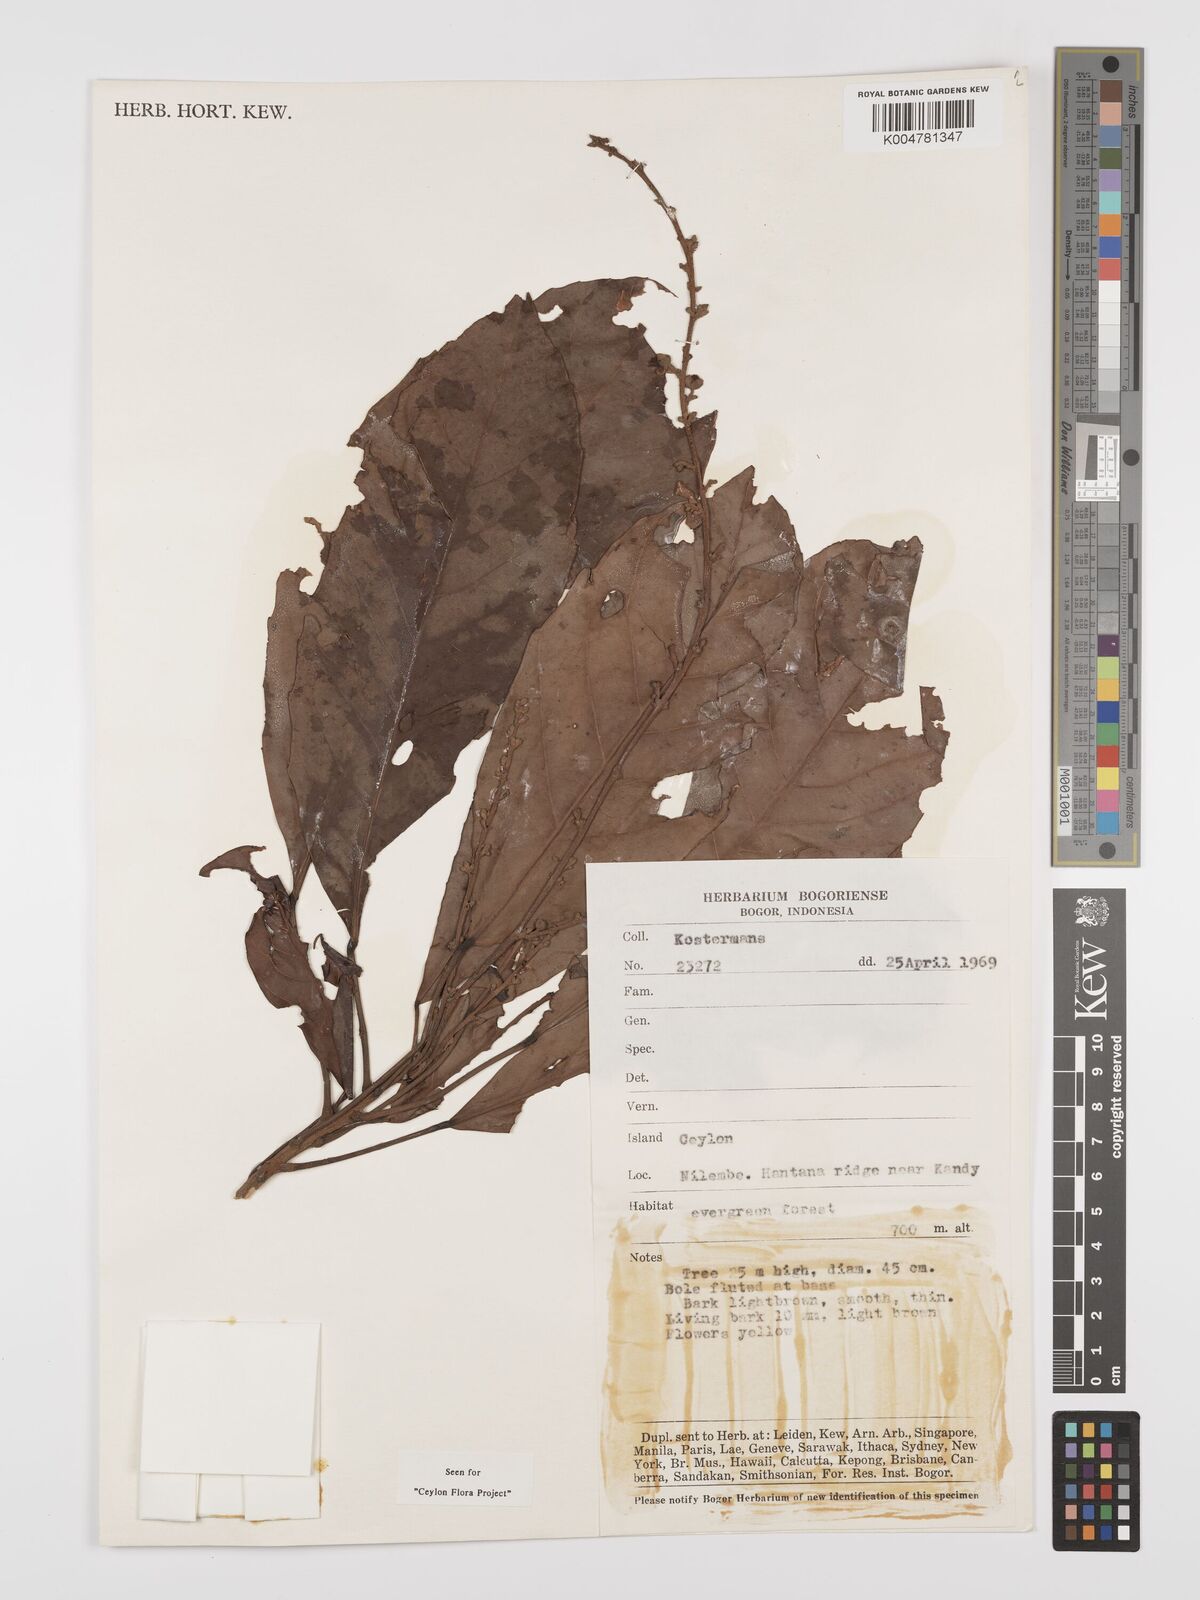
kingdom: Plantae
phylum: Tracheophyta
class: Magnoliopsida
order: Malpighiales
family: Euphorbiaceae
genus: Paracroton
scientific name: Paracroton zeylanicus
